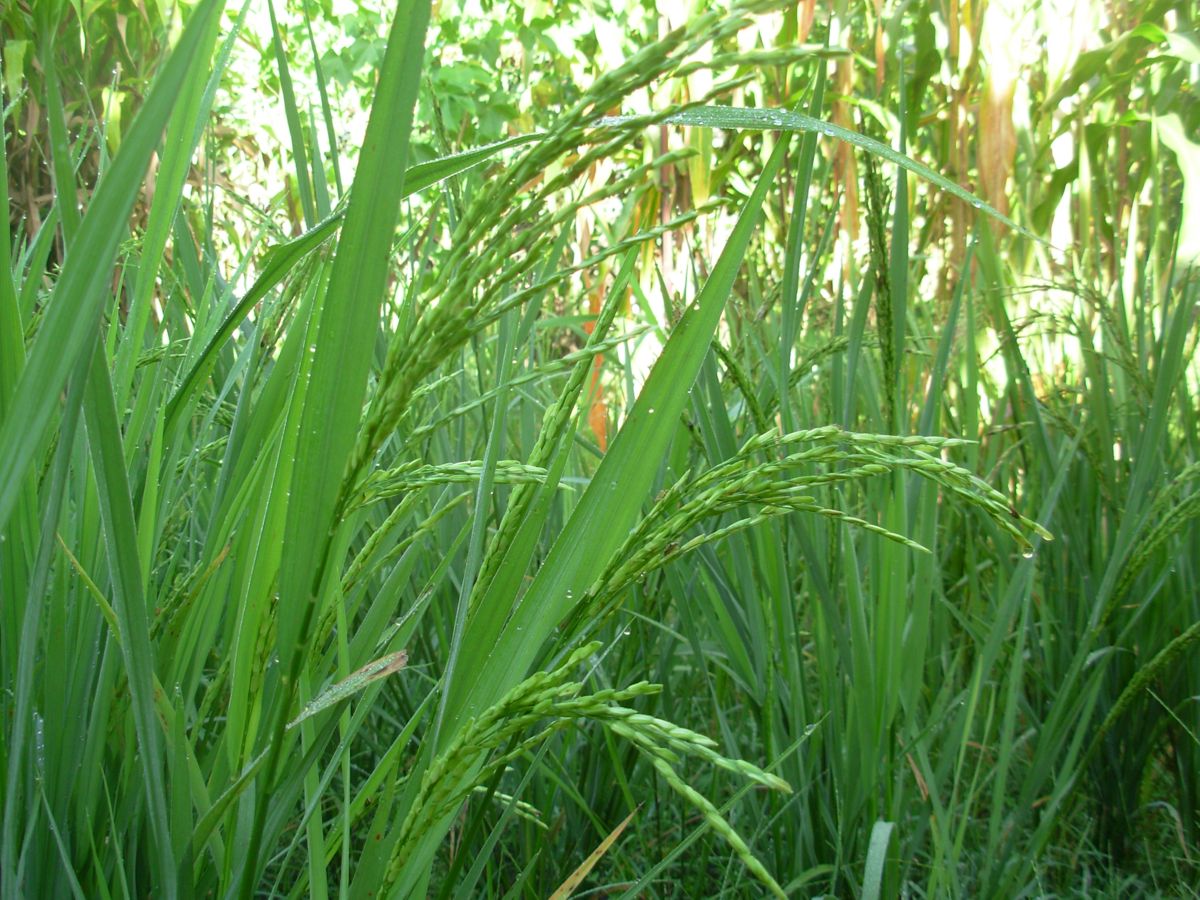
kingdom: Plantae
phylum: Tracheophyta
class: Liliopsida
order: Poales
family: Poaceae
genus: Oryza
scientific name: Oryza sativa
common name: Rice
